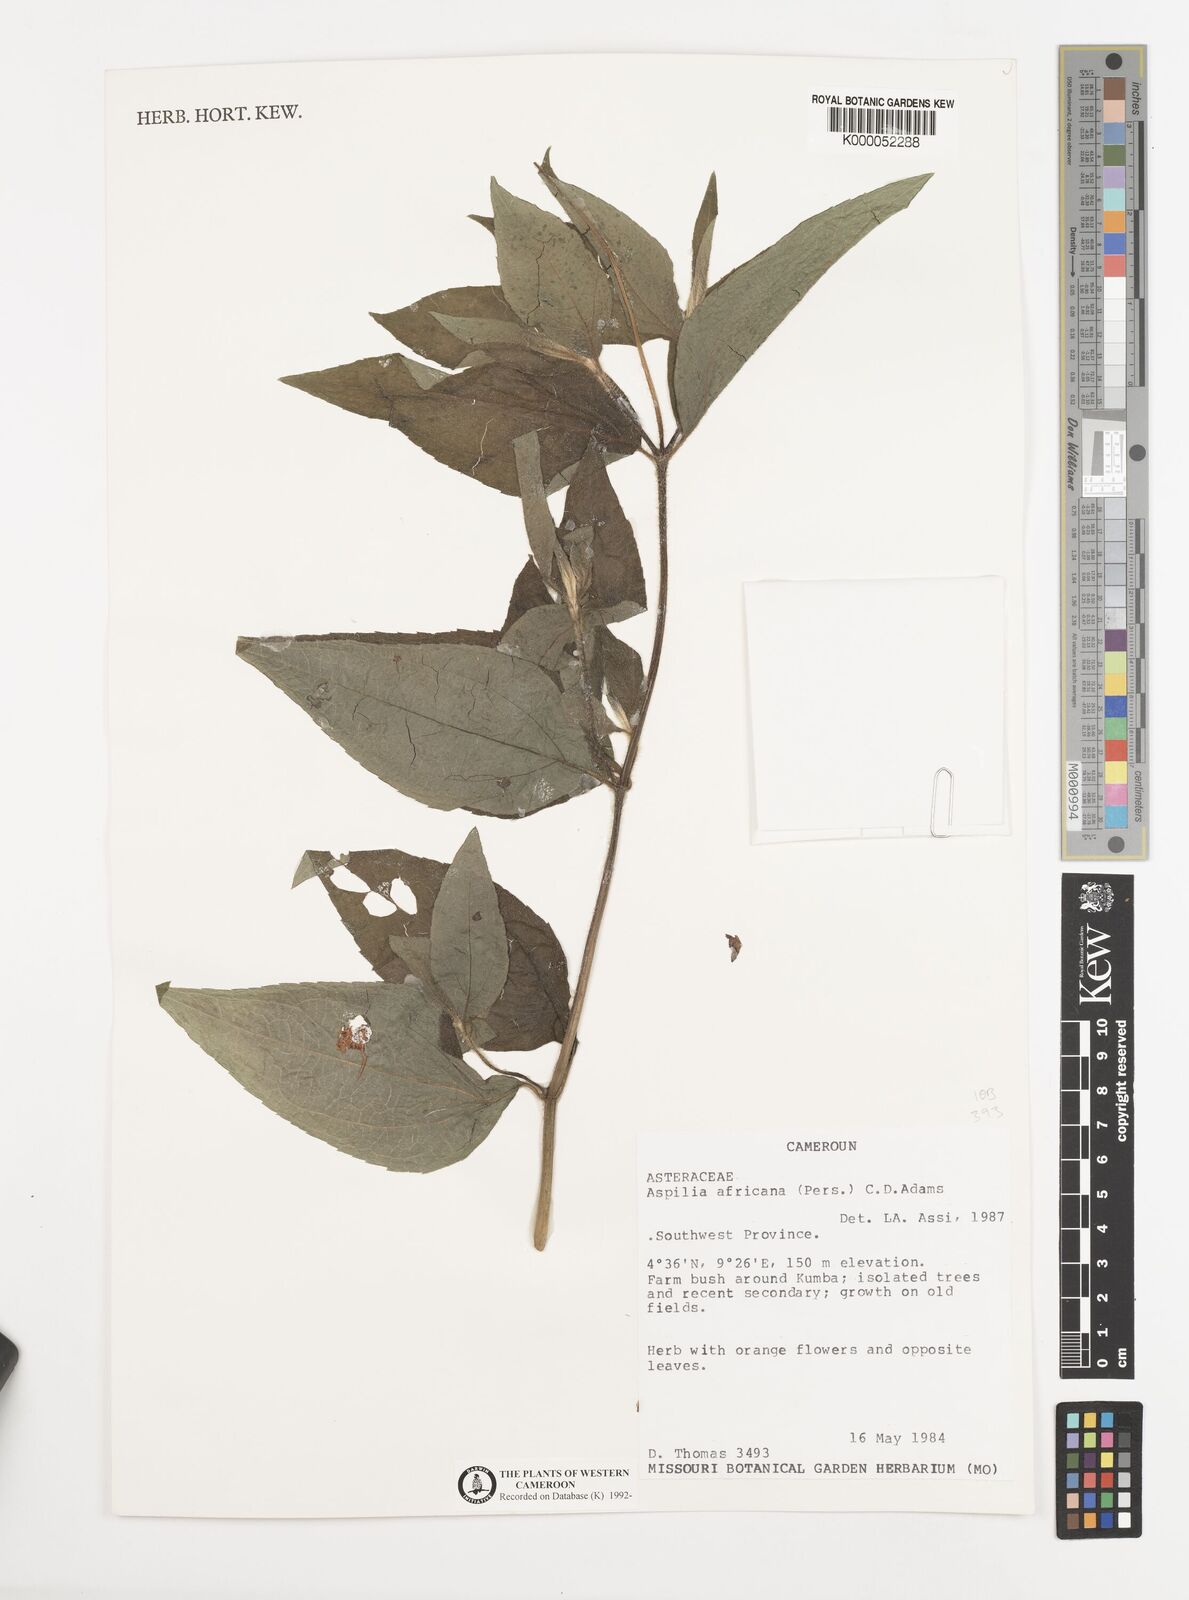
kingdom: Plantae
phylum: Tracheophyta
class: Magnoliopsida
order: Asterales
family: Asteraceae
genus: Aspilia
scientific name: Aspilia africana
